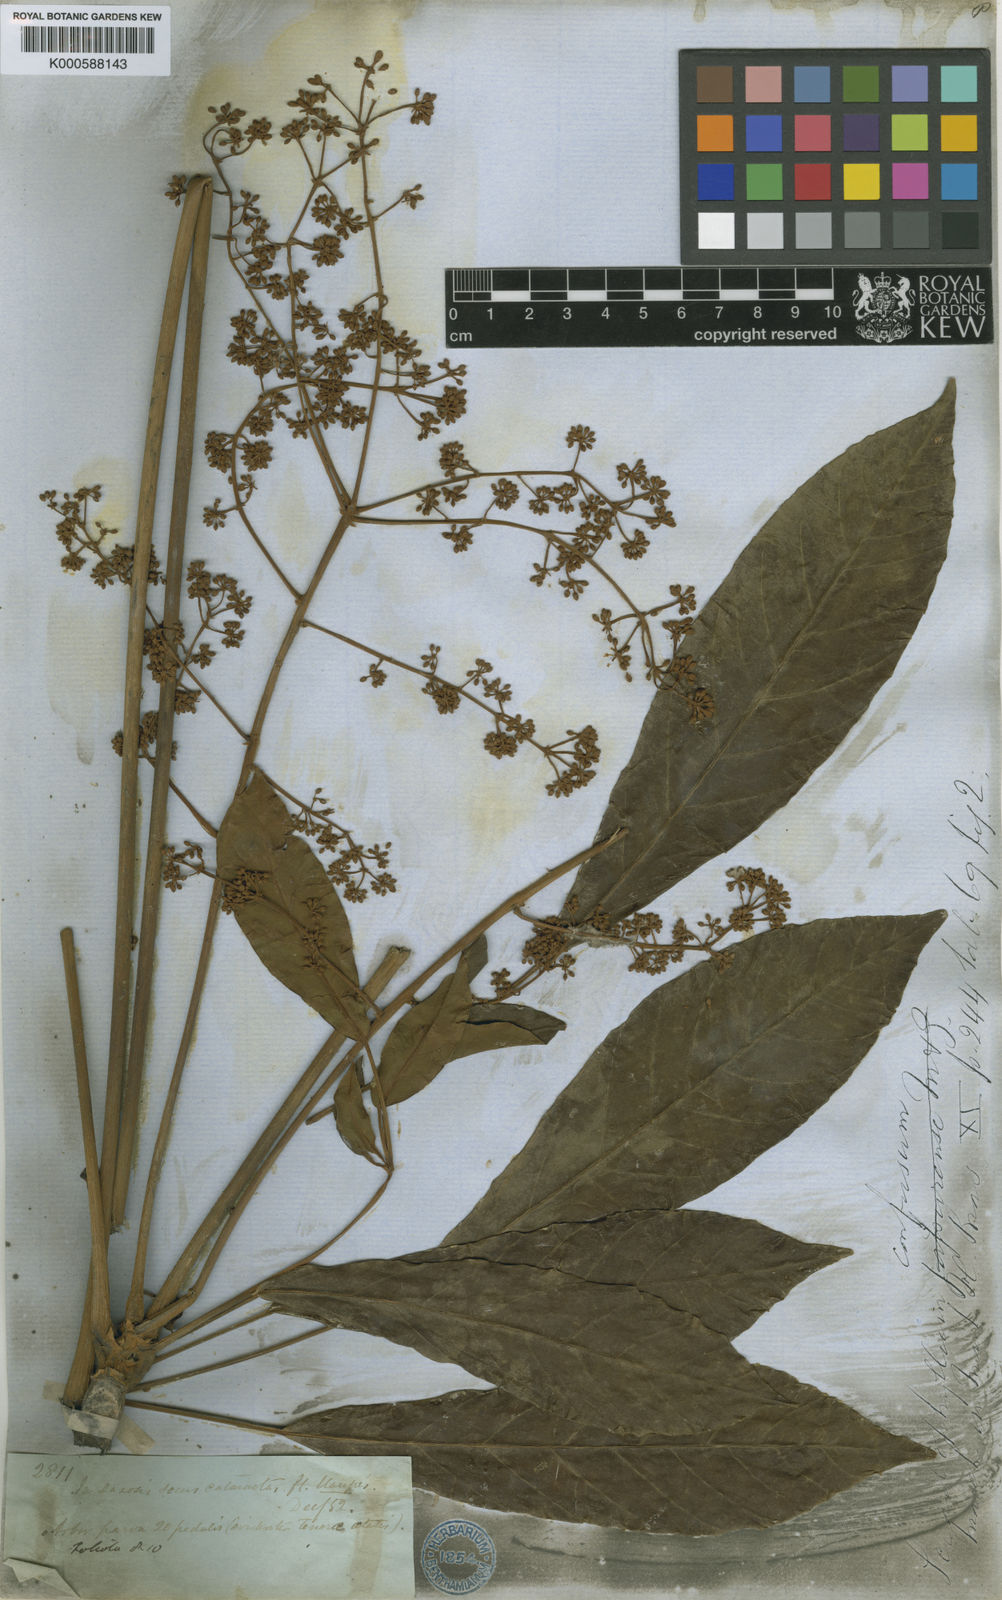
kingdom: Plantae
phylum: Tracheophyta
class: Magnoliopsida
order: Apiales
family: Araliaceae
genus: Didymopanax
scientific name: Didymopanax confusus
